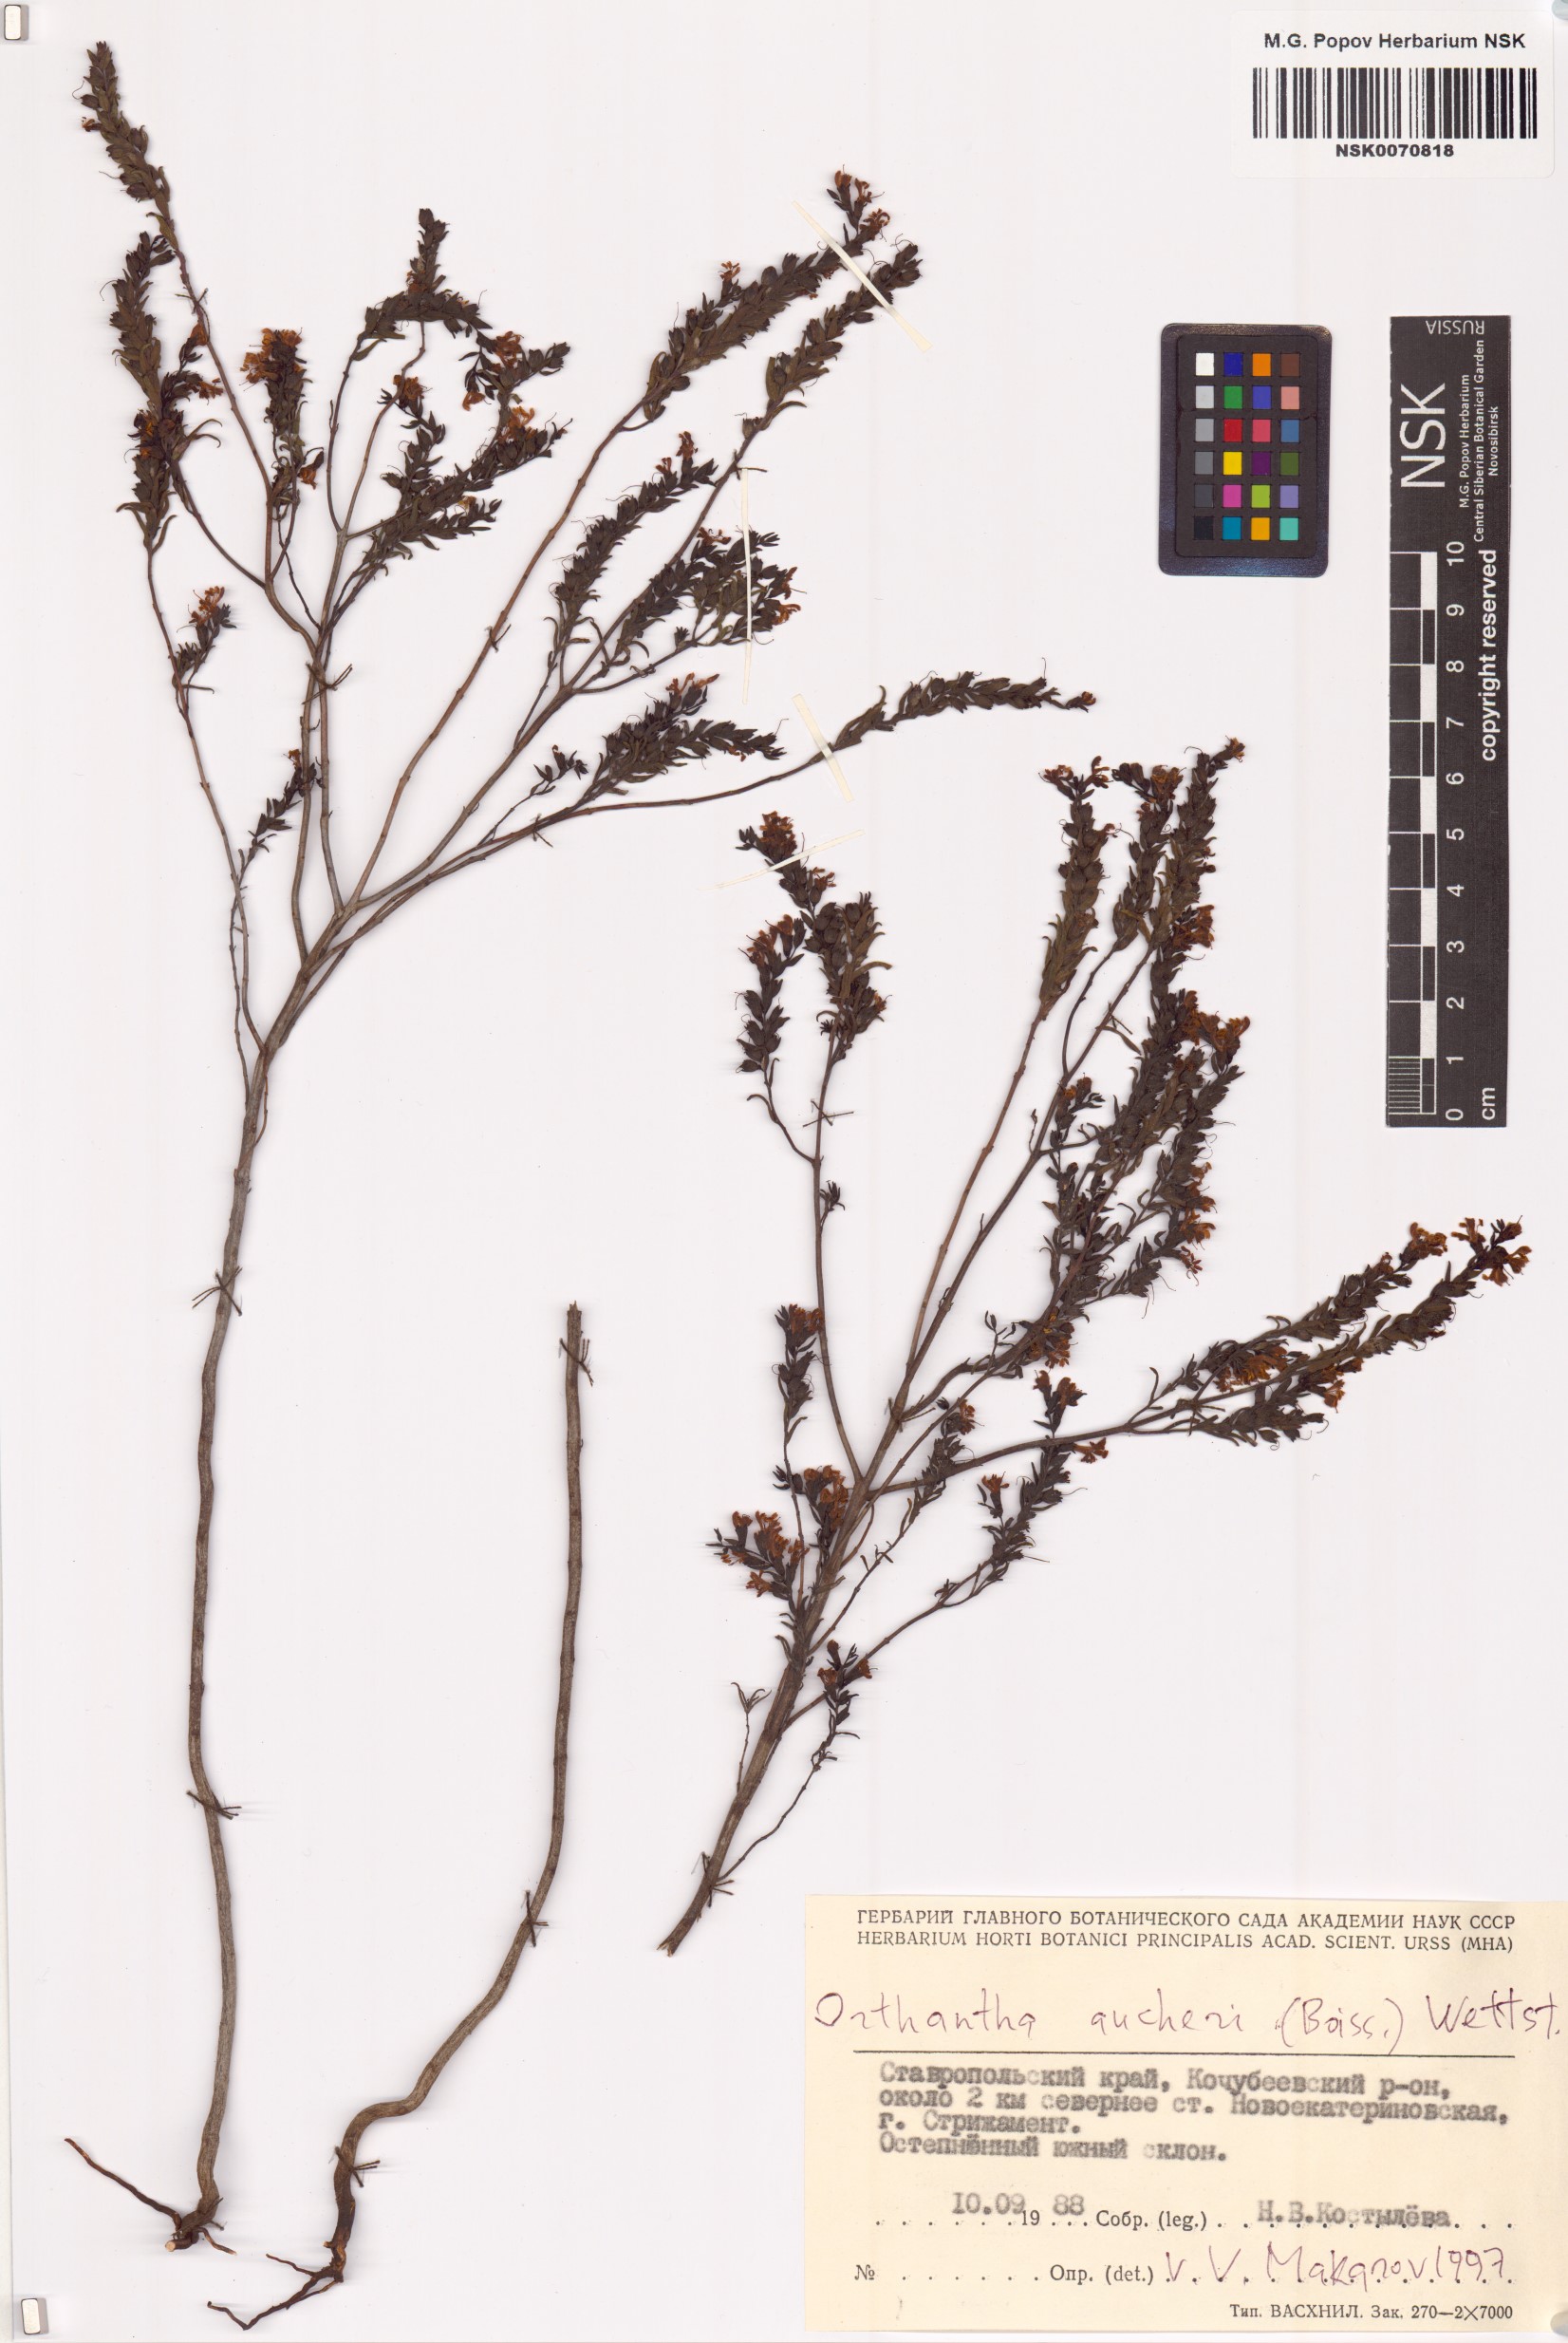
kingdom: Plantae
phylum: Tracheophyta
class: Magnoliopsida
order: Lamiales
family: Orobanchaceae
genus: Odontites
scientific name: Odontites aucheri
